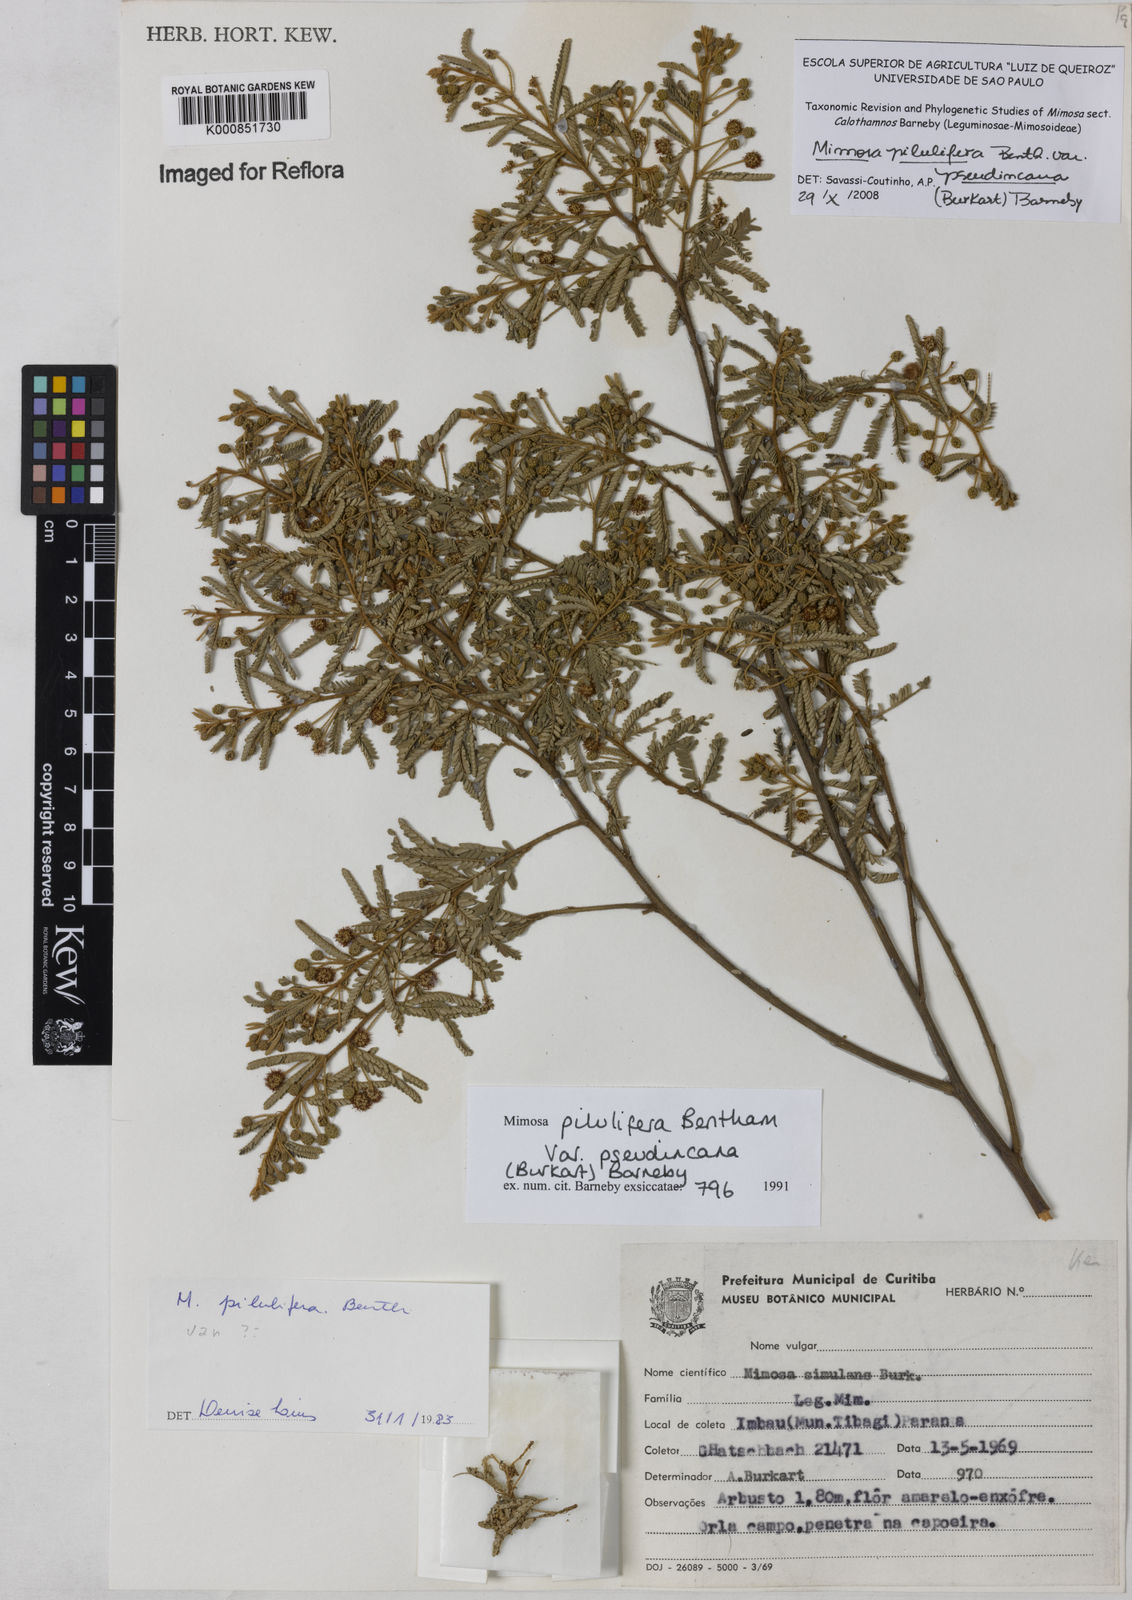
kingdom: Plantae
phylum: Tracheophyta
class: Magnoliopsida
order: Fabales
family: Fabaceae
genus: Mimosa
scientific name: Mimosa pilulifera
